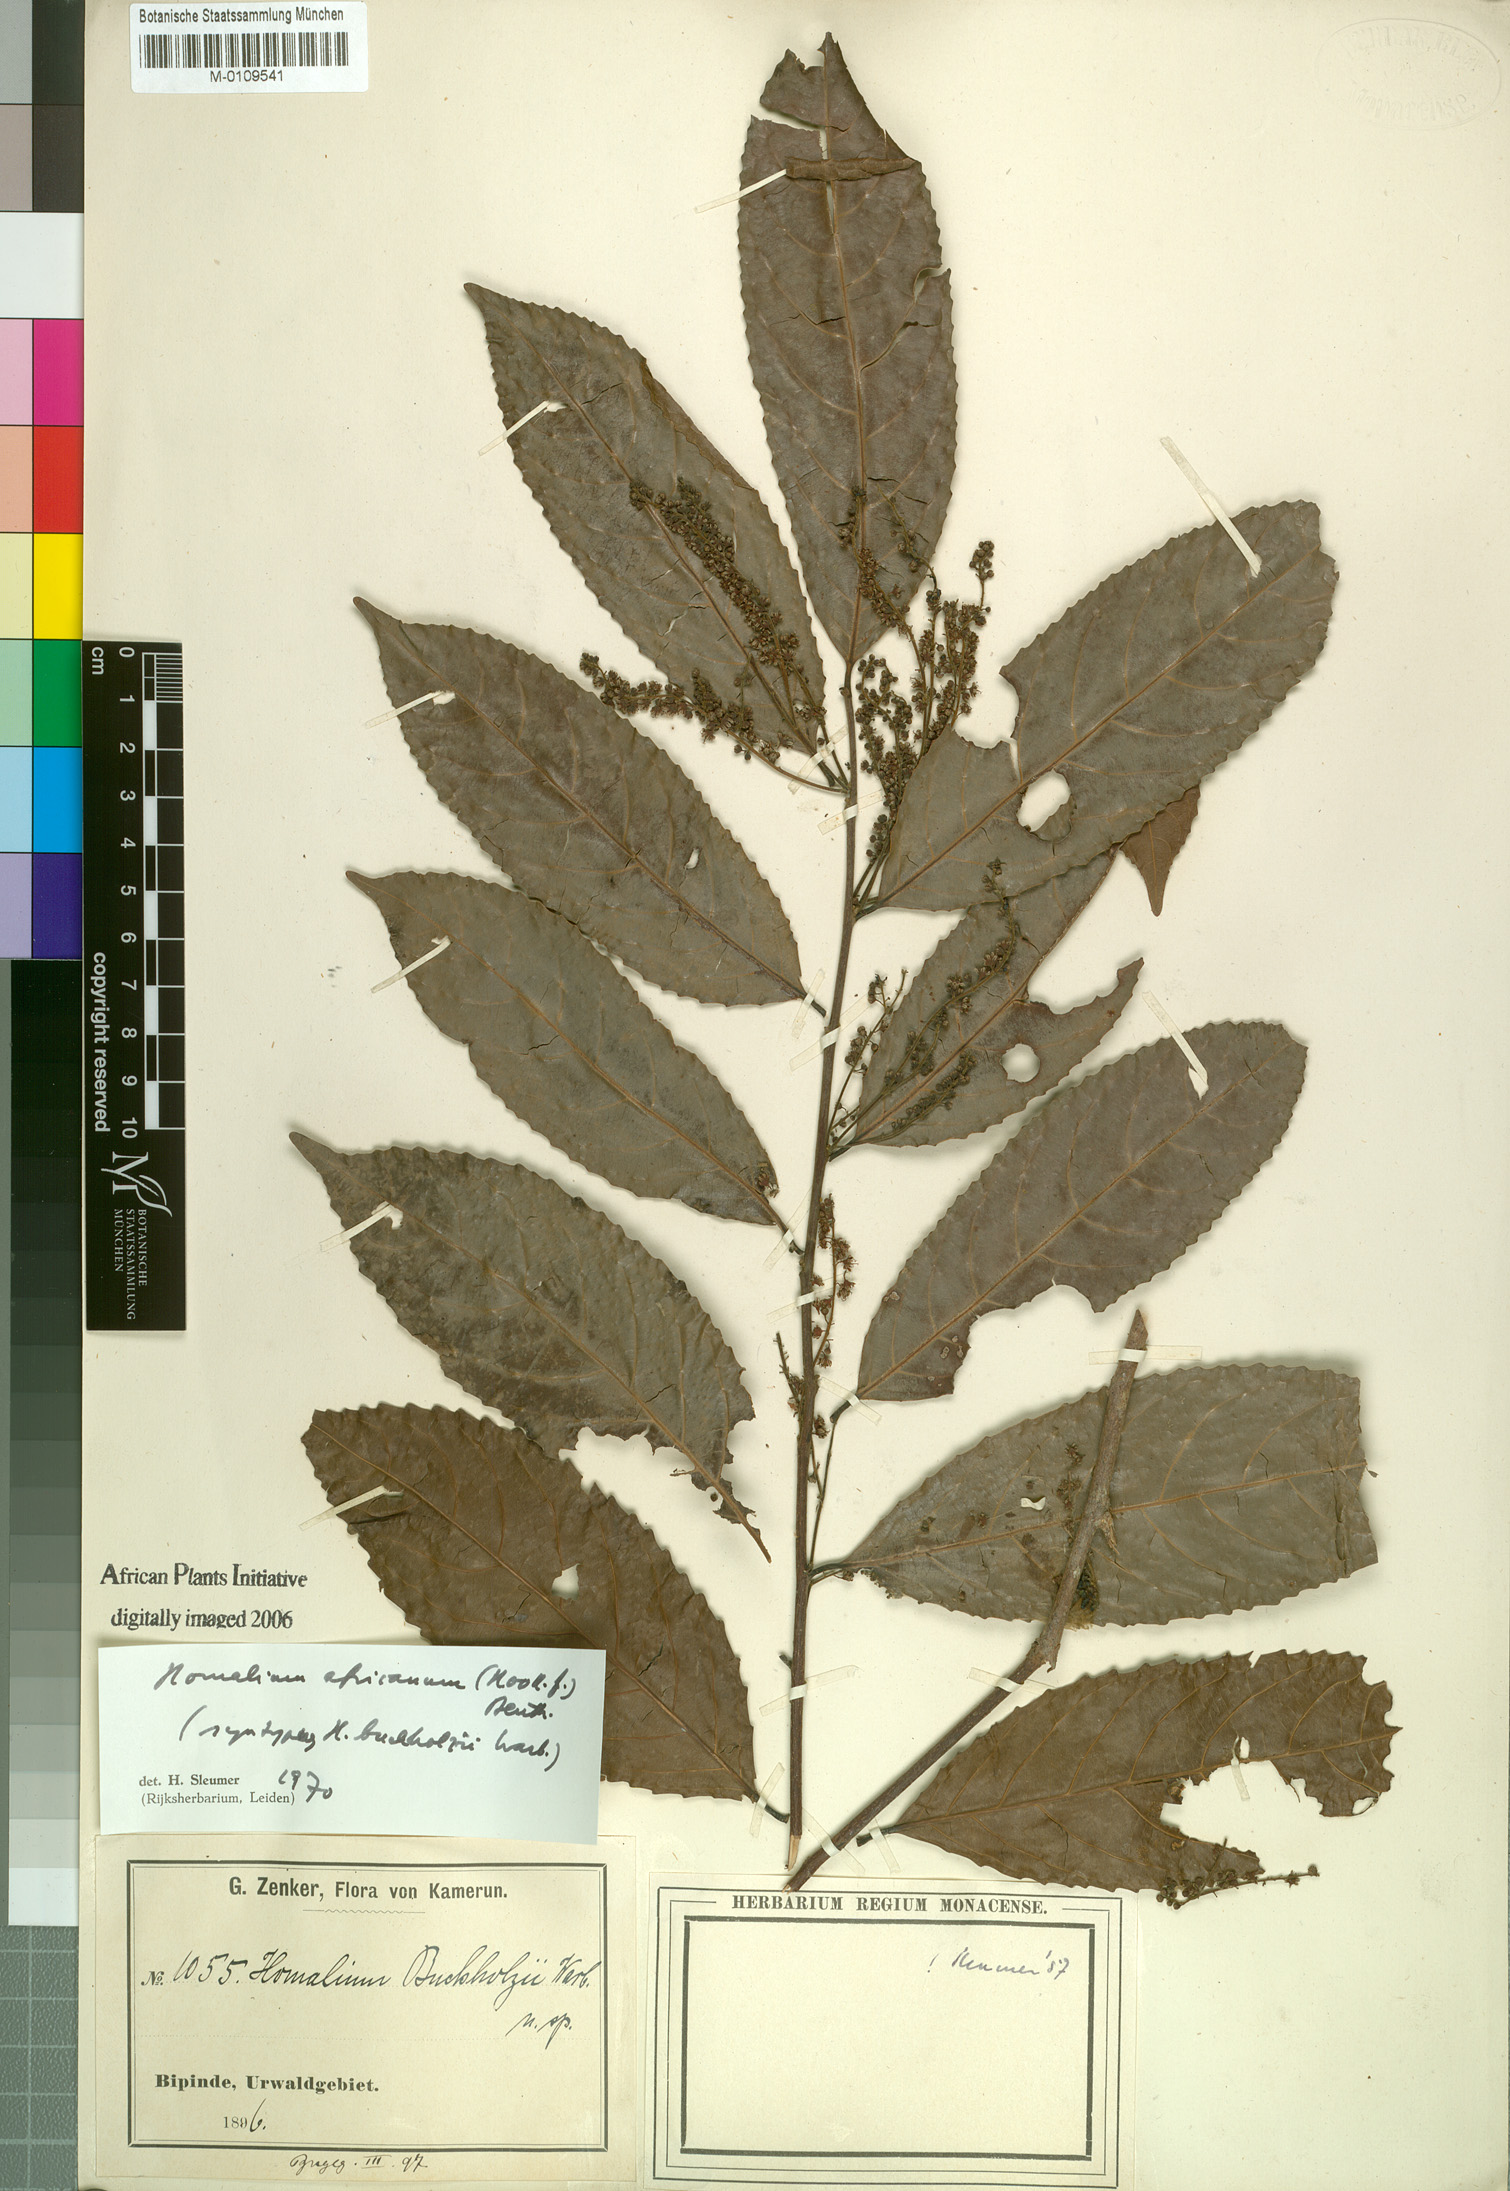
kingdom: Plantae
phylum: Tracheophyta
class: Magnoliopsida
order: Malpighiales
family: Salicaceae
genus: Homalium
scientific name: Homalium africanum
